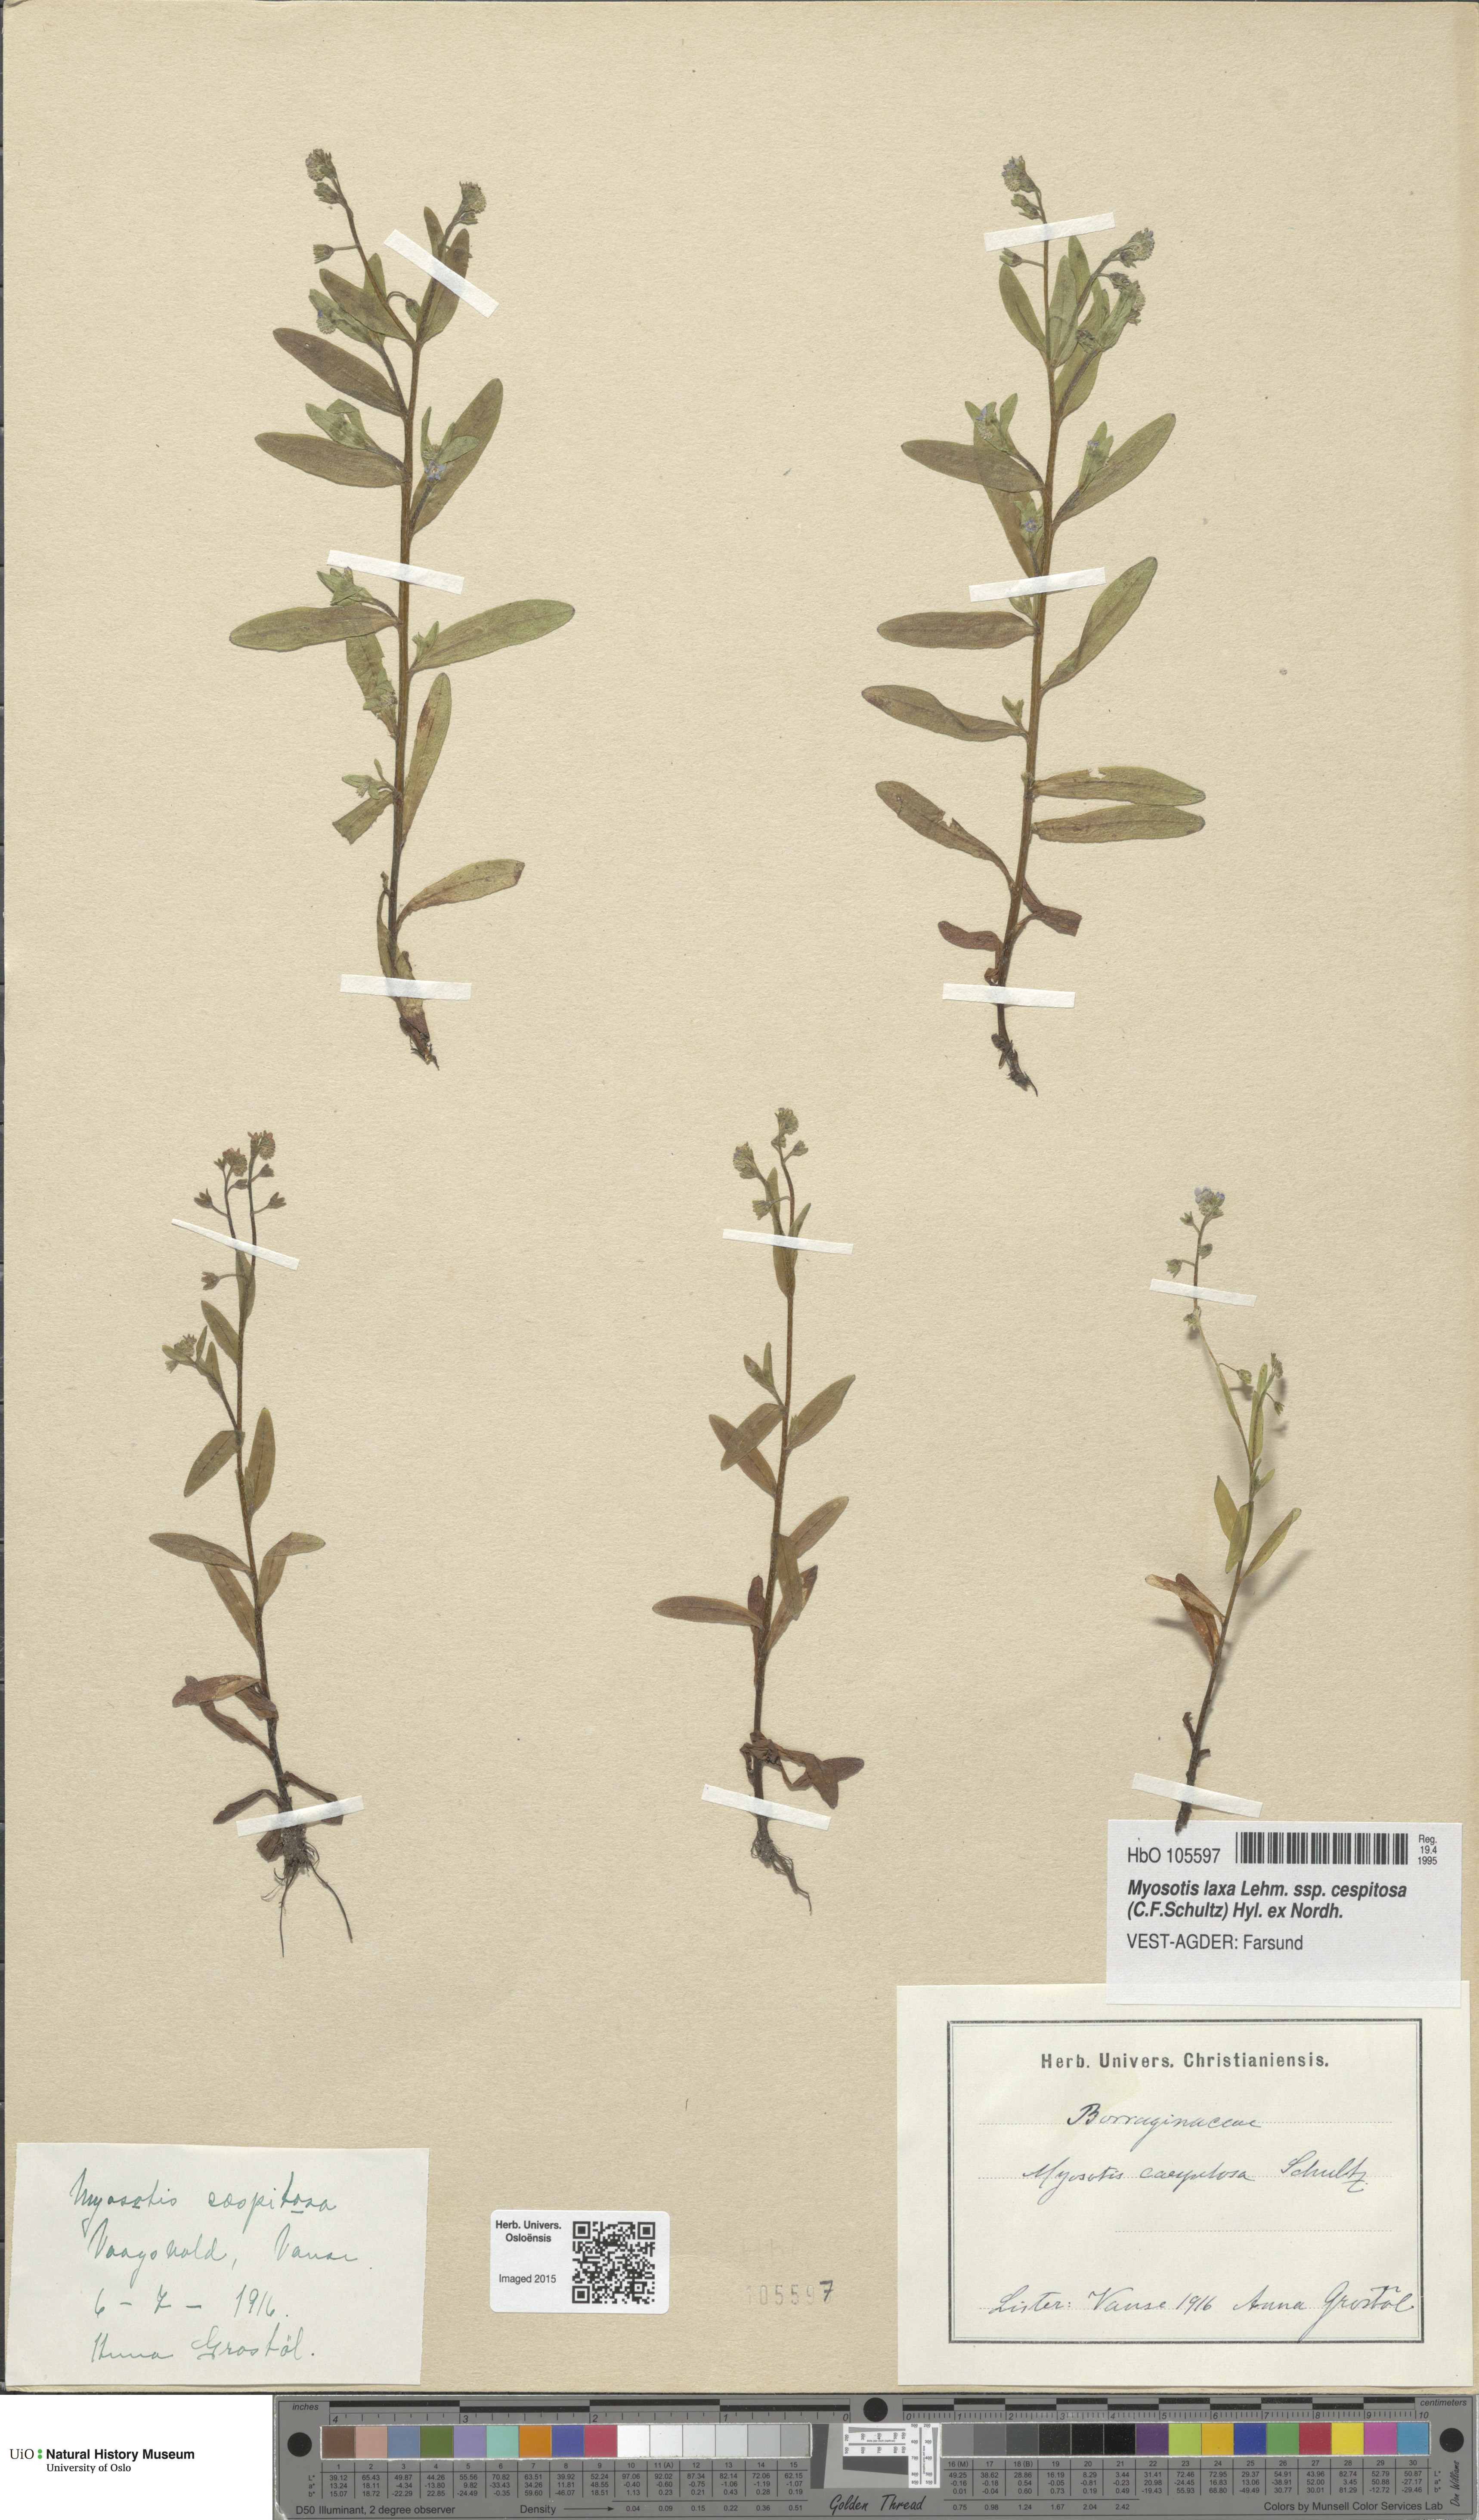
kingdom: Plantae
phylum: Tracheophyta
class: Magnoliopsida
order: Boraginales
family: Boraginaceae
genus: Myosotis
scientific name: Myosotis laxa
